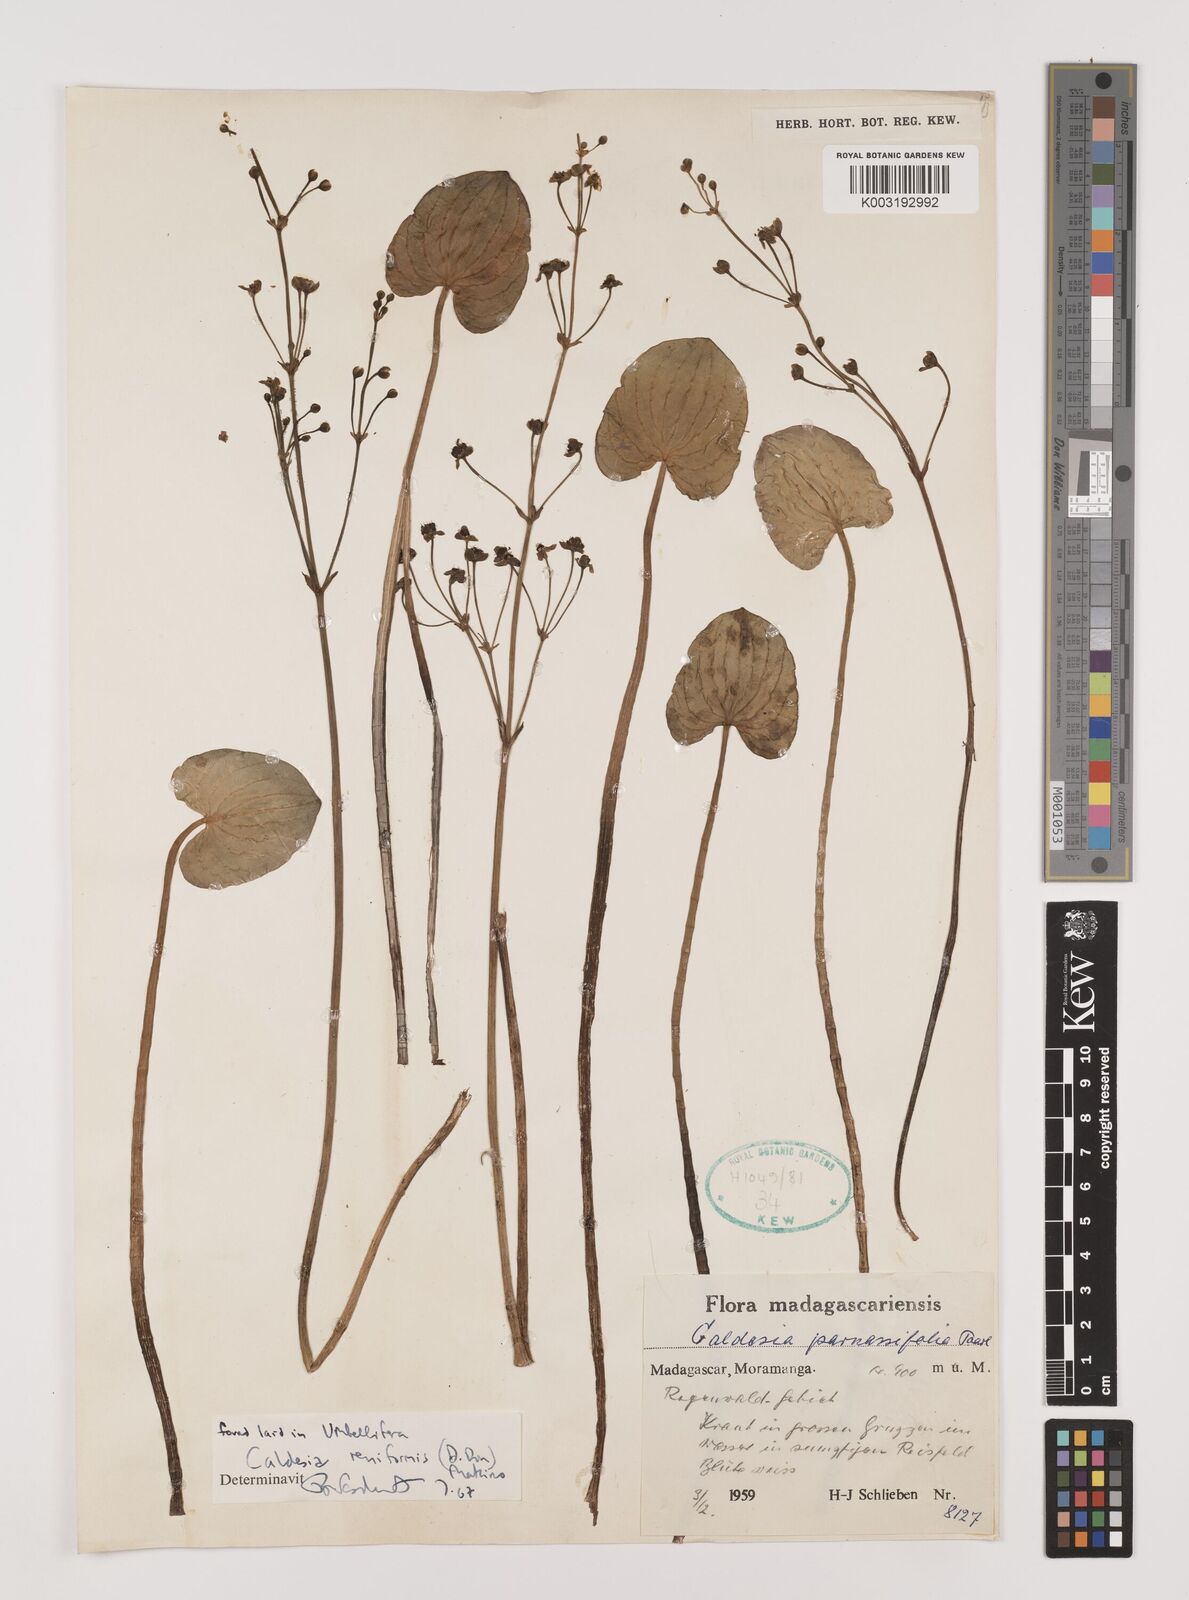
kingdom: Plantae
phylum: Tracheophyta
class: Liliopsida
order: Alismatales
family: Alismataceae
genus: Caldesia
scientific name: Caldesia parnassifolia
